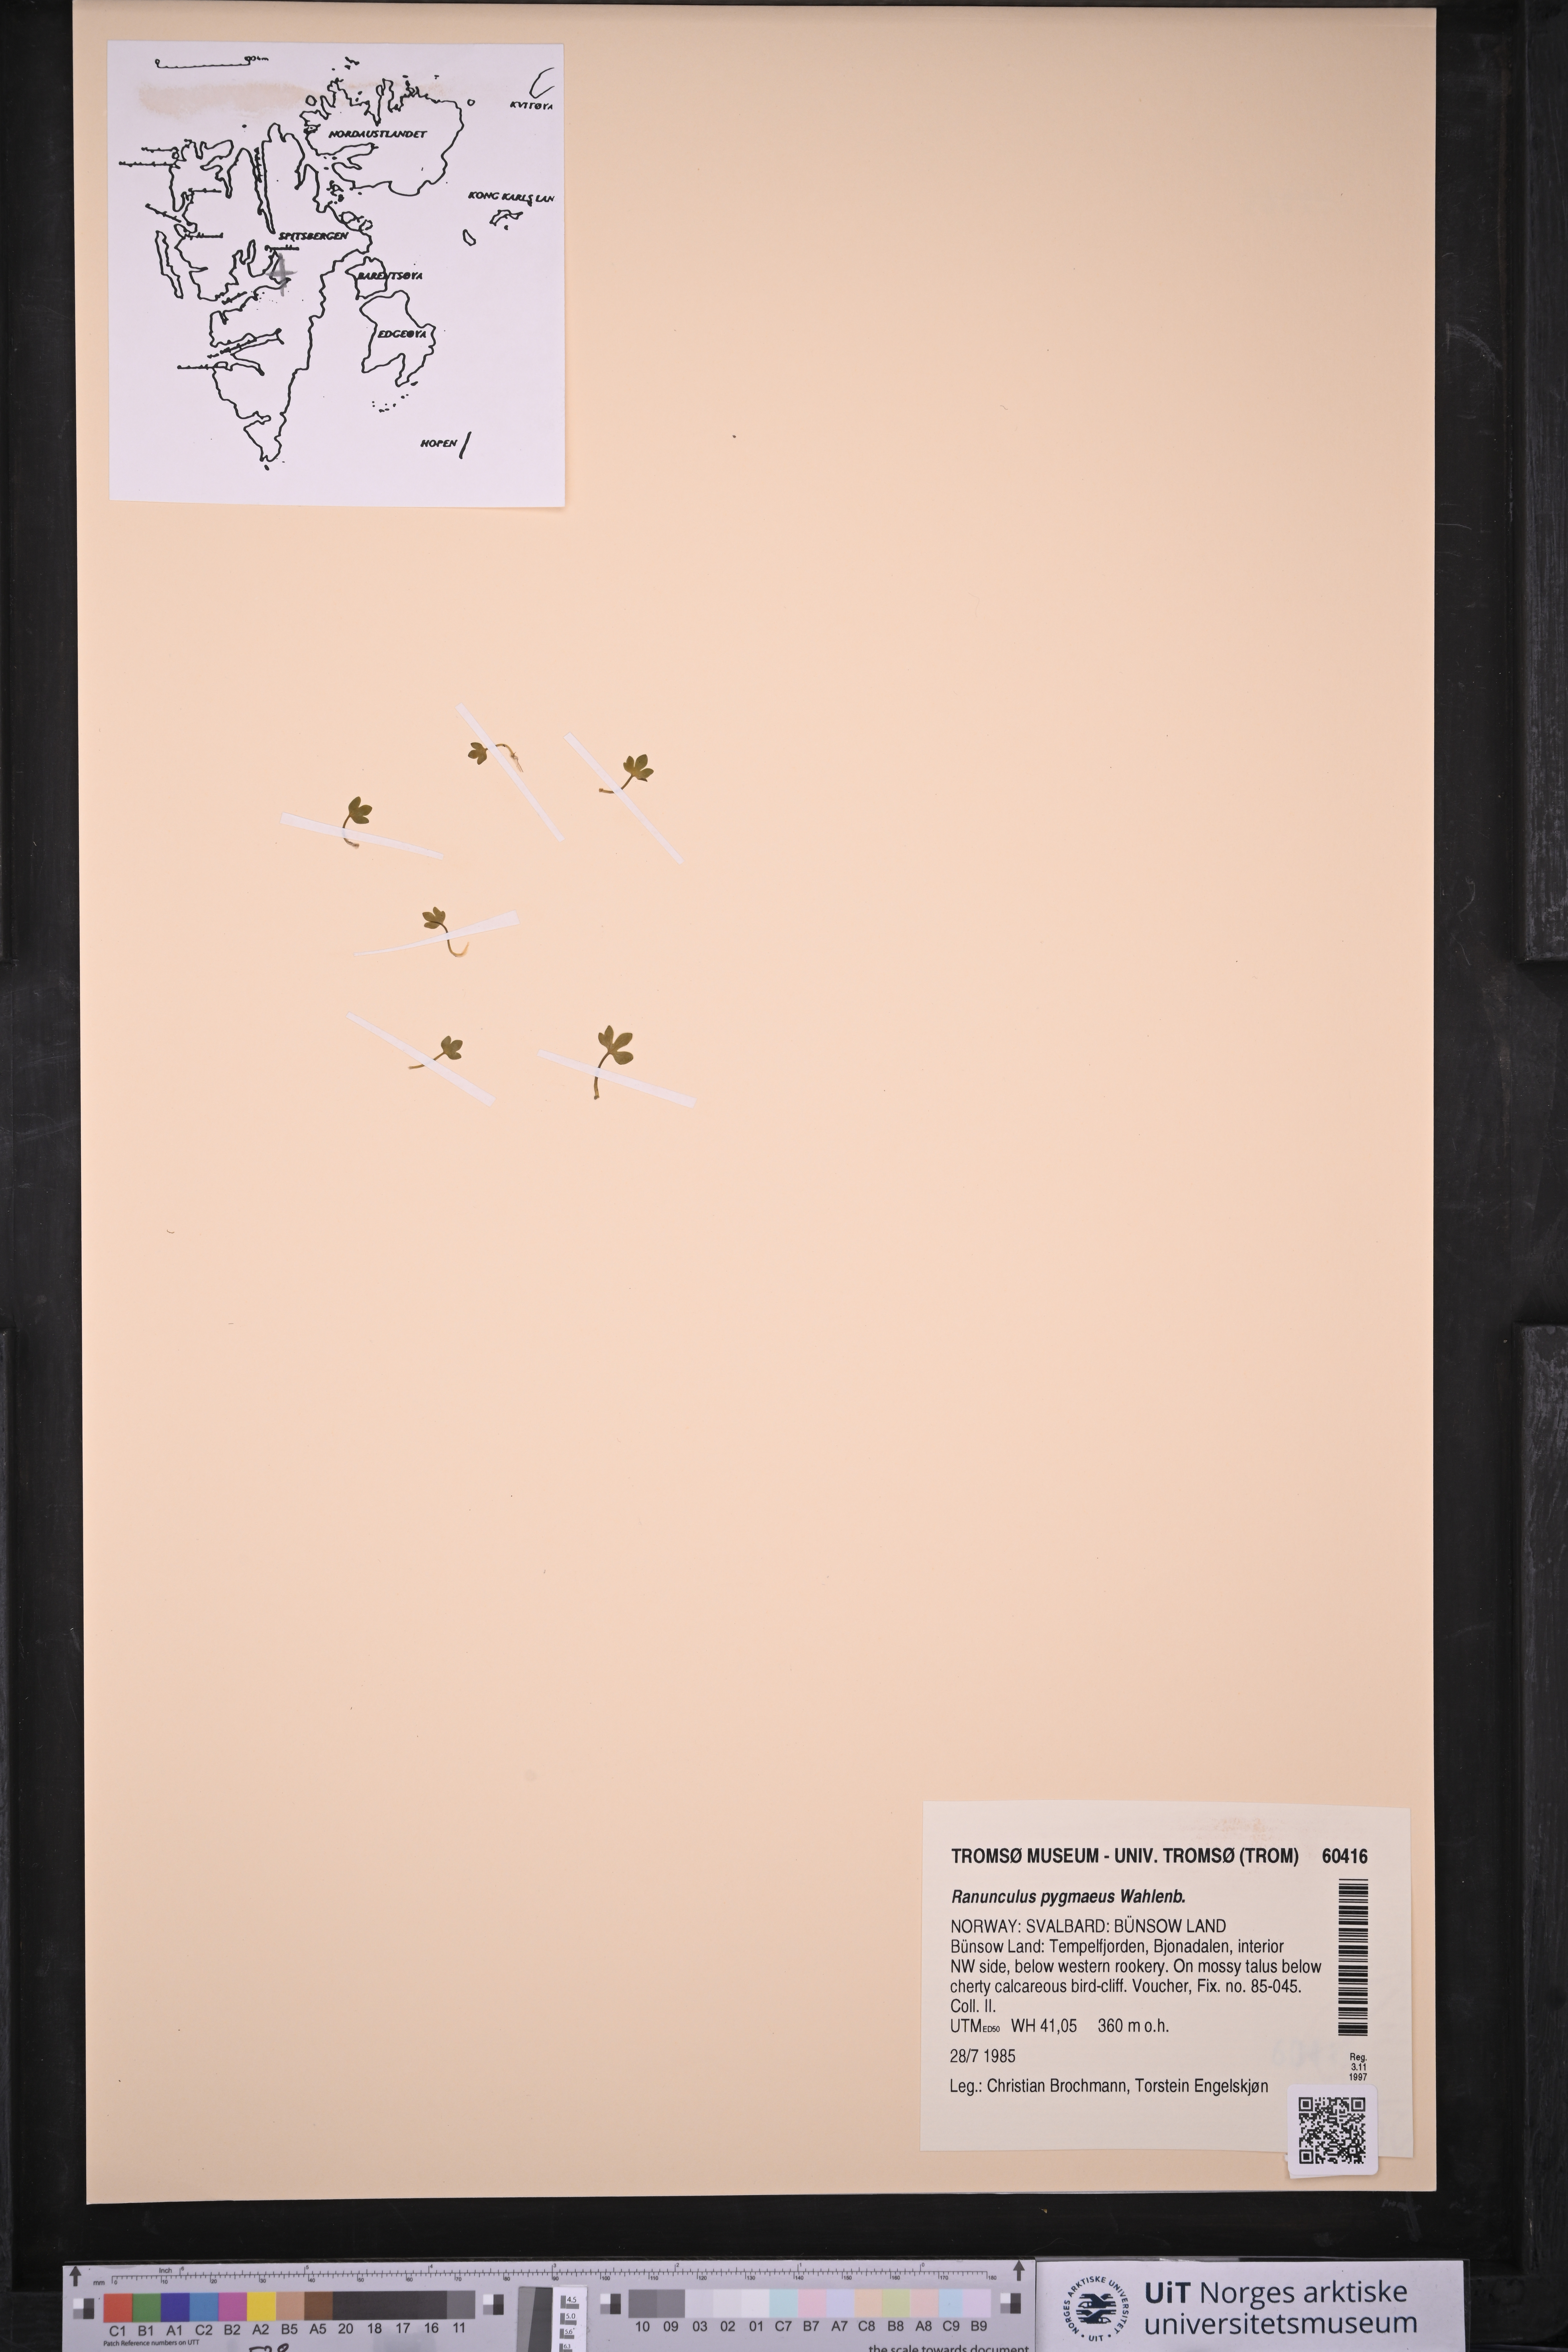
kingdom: Plantae
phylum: Tracheophyta
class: Magnoliopsida
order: Ranunculales
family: Ranunculaceae
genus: Ranunculus
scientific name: Ranunculus pygmaeus
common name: Dwarf buttercup
